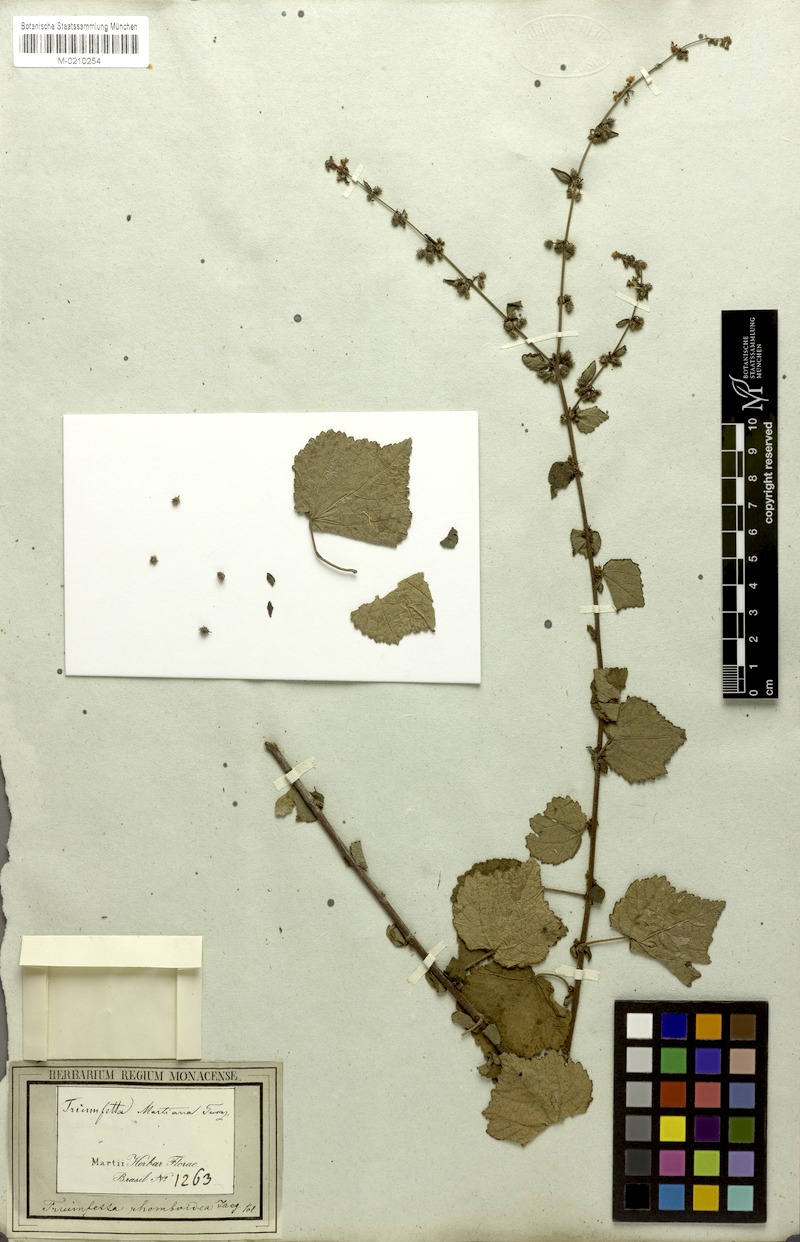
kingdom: Plantae
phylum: Tracheophyta
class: Magnoliopsida
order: Malvales
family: Malvaceae
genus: Triumfetta
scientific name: Triumfetta rhomboidea
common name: Diamond burbark
